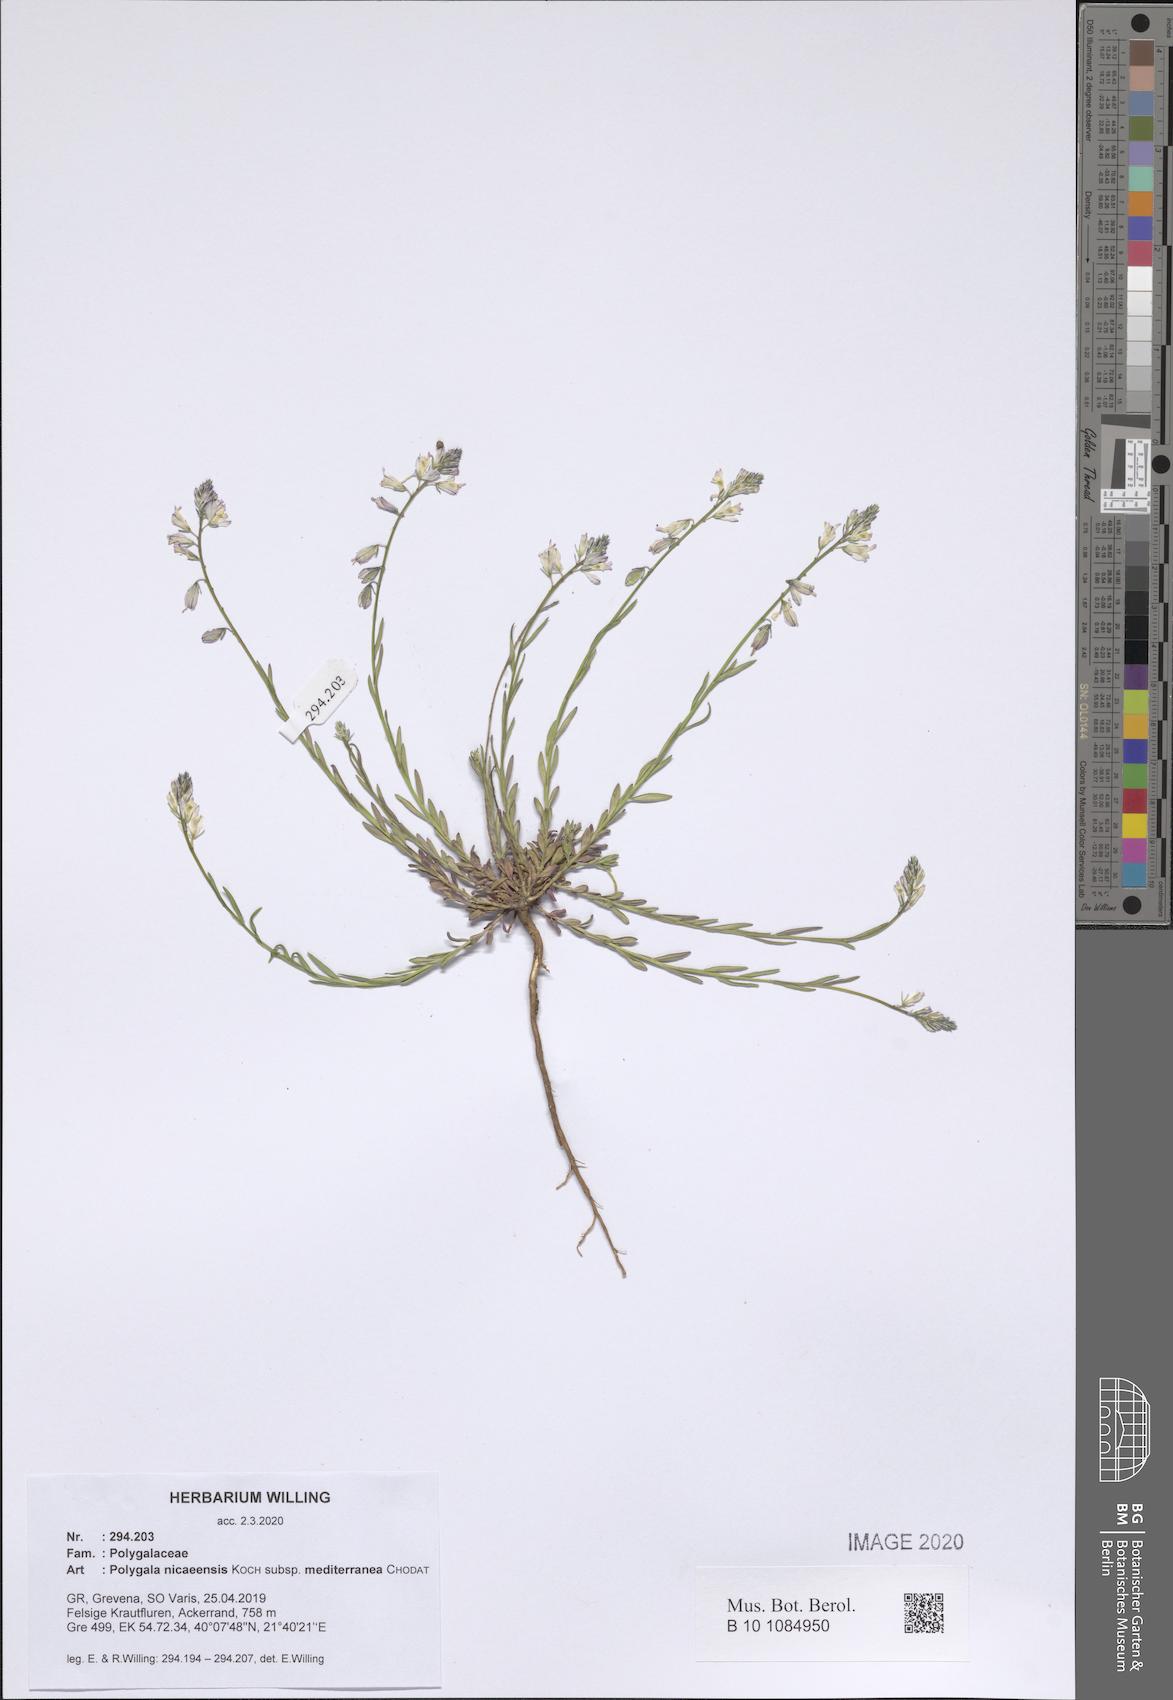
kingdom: Plantae
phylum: Tracheophyta
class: Magnoliopsida
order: Fabales
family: Polygalaceae
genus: Polygala
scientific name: Polygala nicaeensis
